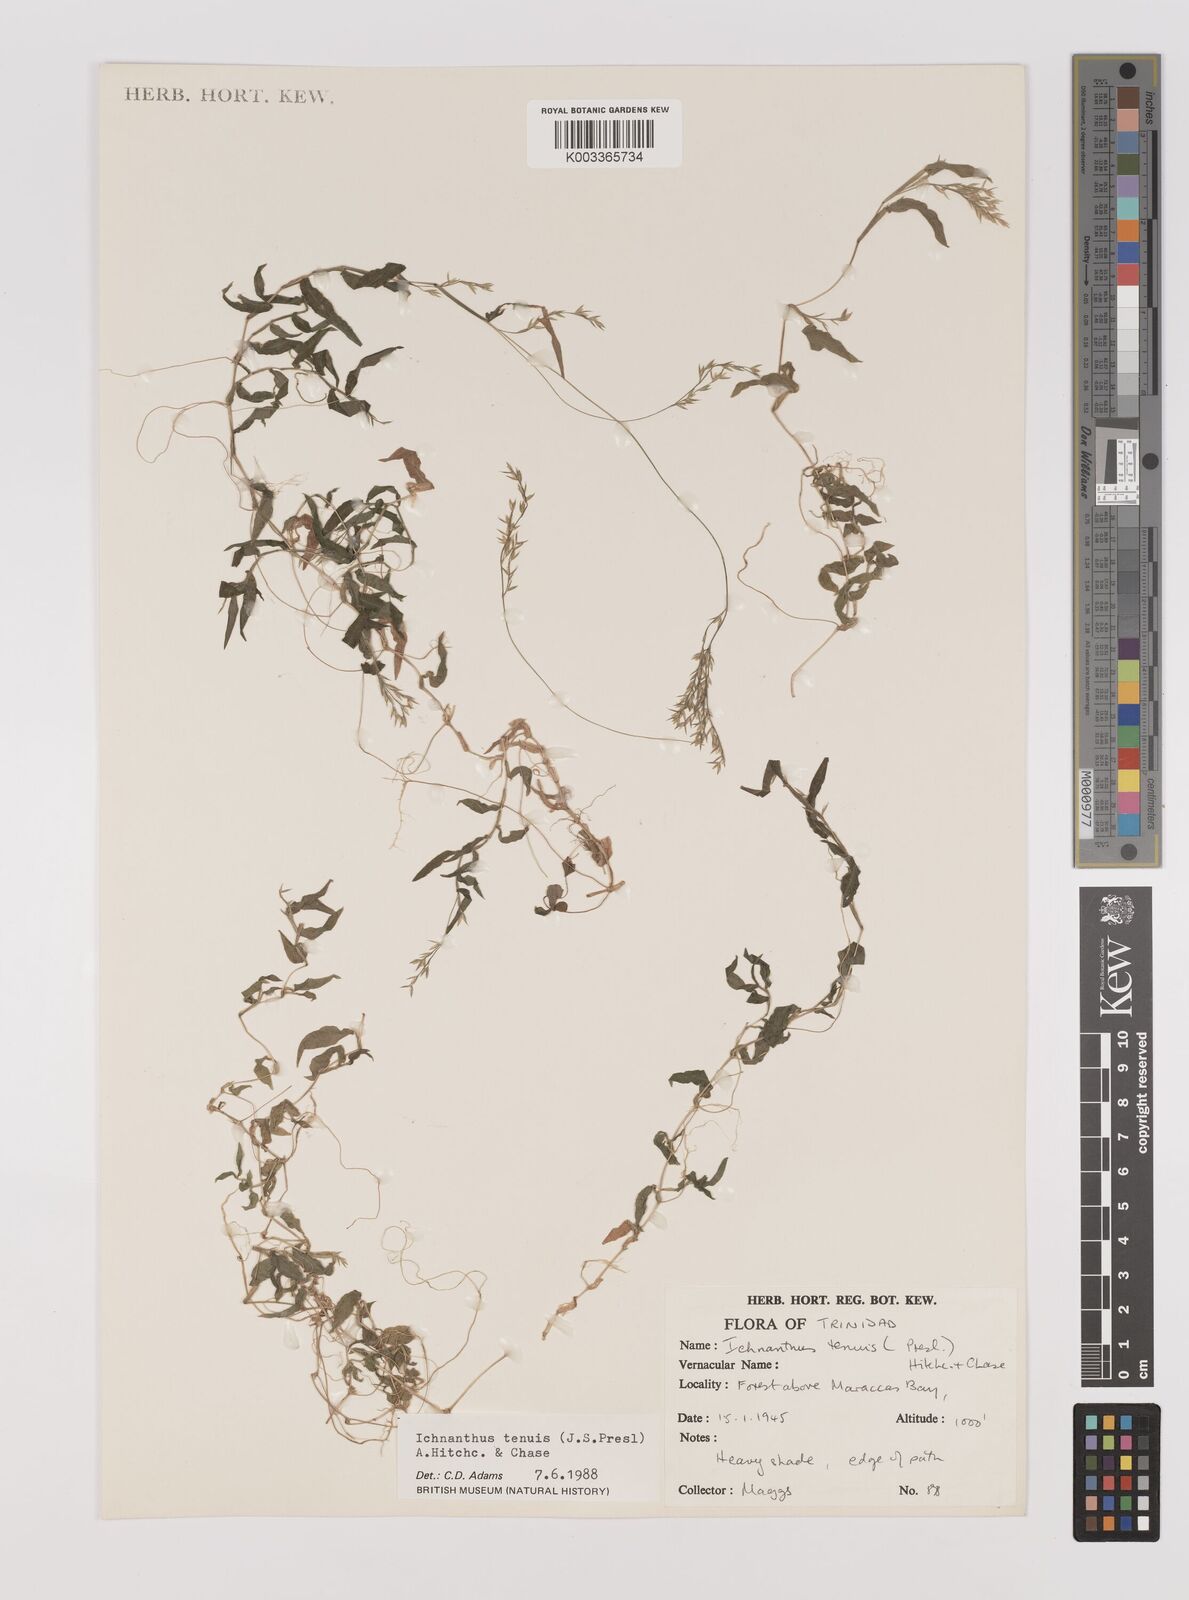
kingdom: Plantae
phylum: Tracheophyta
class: Liliopsida
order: Poales
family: Poaceae
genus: Ichnanthus
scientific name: Ichnanthus tenuis
